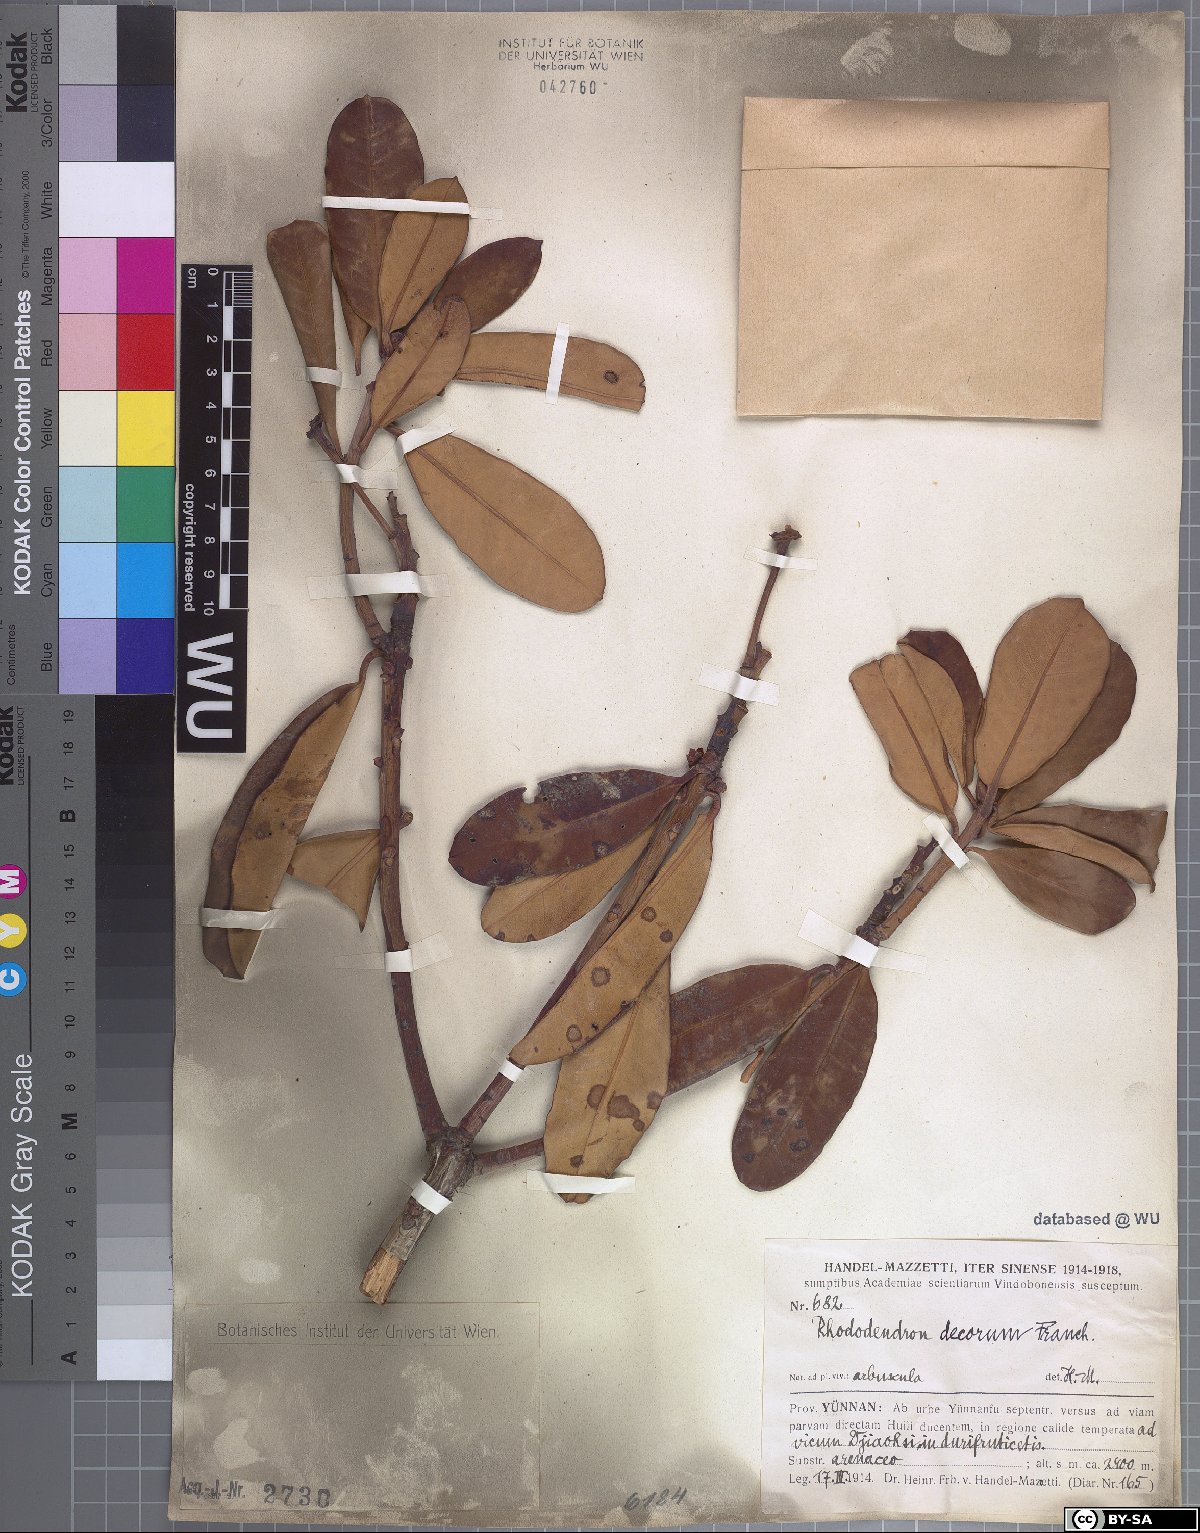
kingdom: Plantae
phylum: Tracheophyta
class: Magnoliopsida
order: Ericales
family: Ericaceae
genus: Rhododendron
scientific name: Rhododendron decorum
